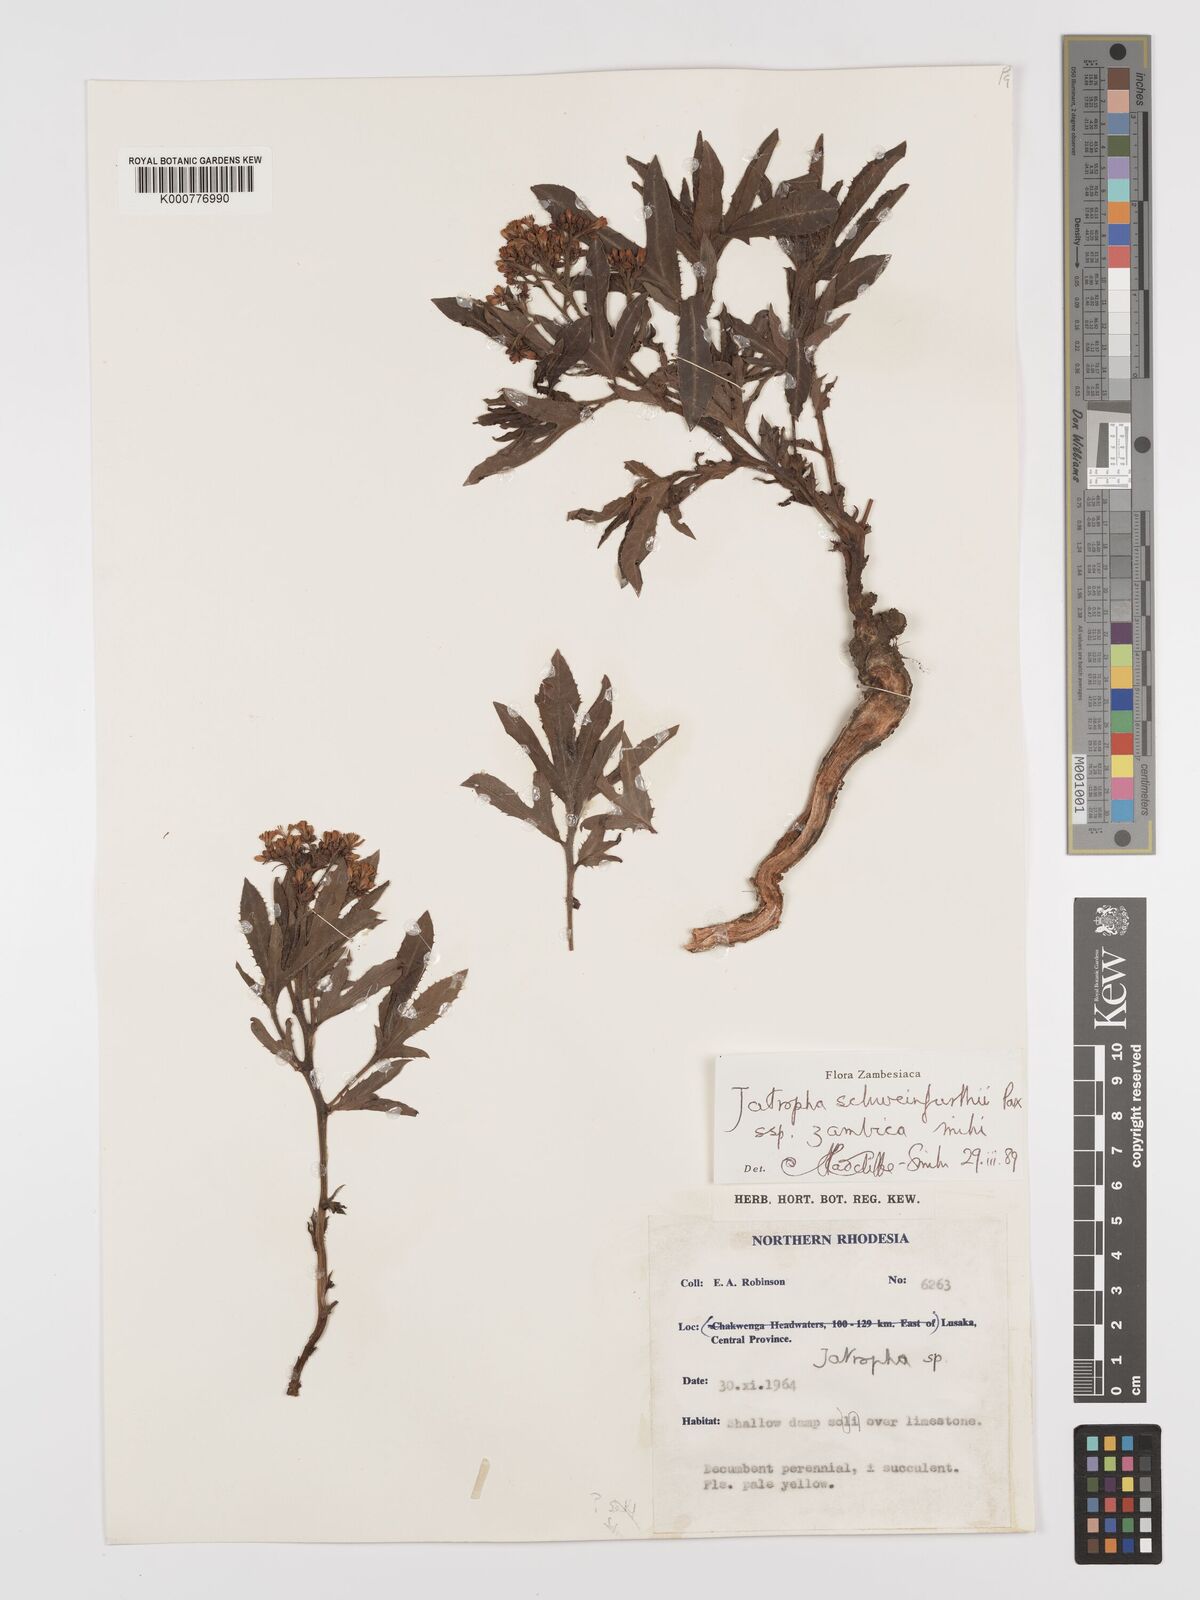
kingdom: Plantae
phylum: Tracheophyta
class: Magnoliopsida
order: Malpighiales
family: Euphorbiaceae
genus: Jatropha
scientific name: Jatropha schweinfurthii
